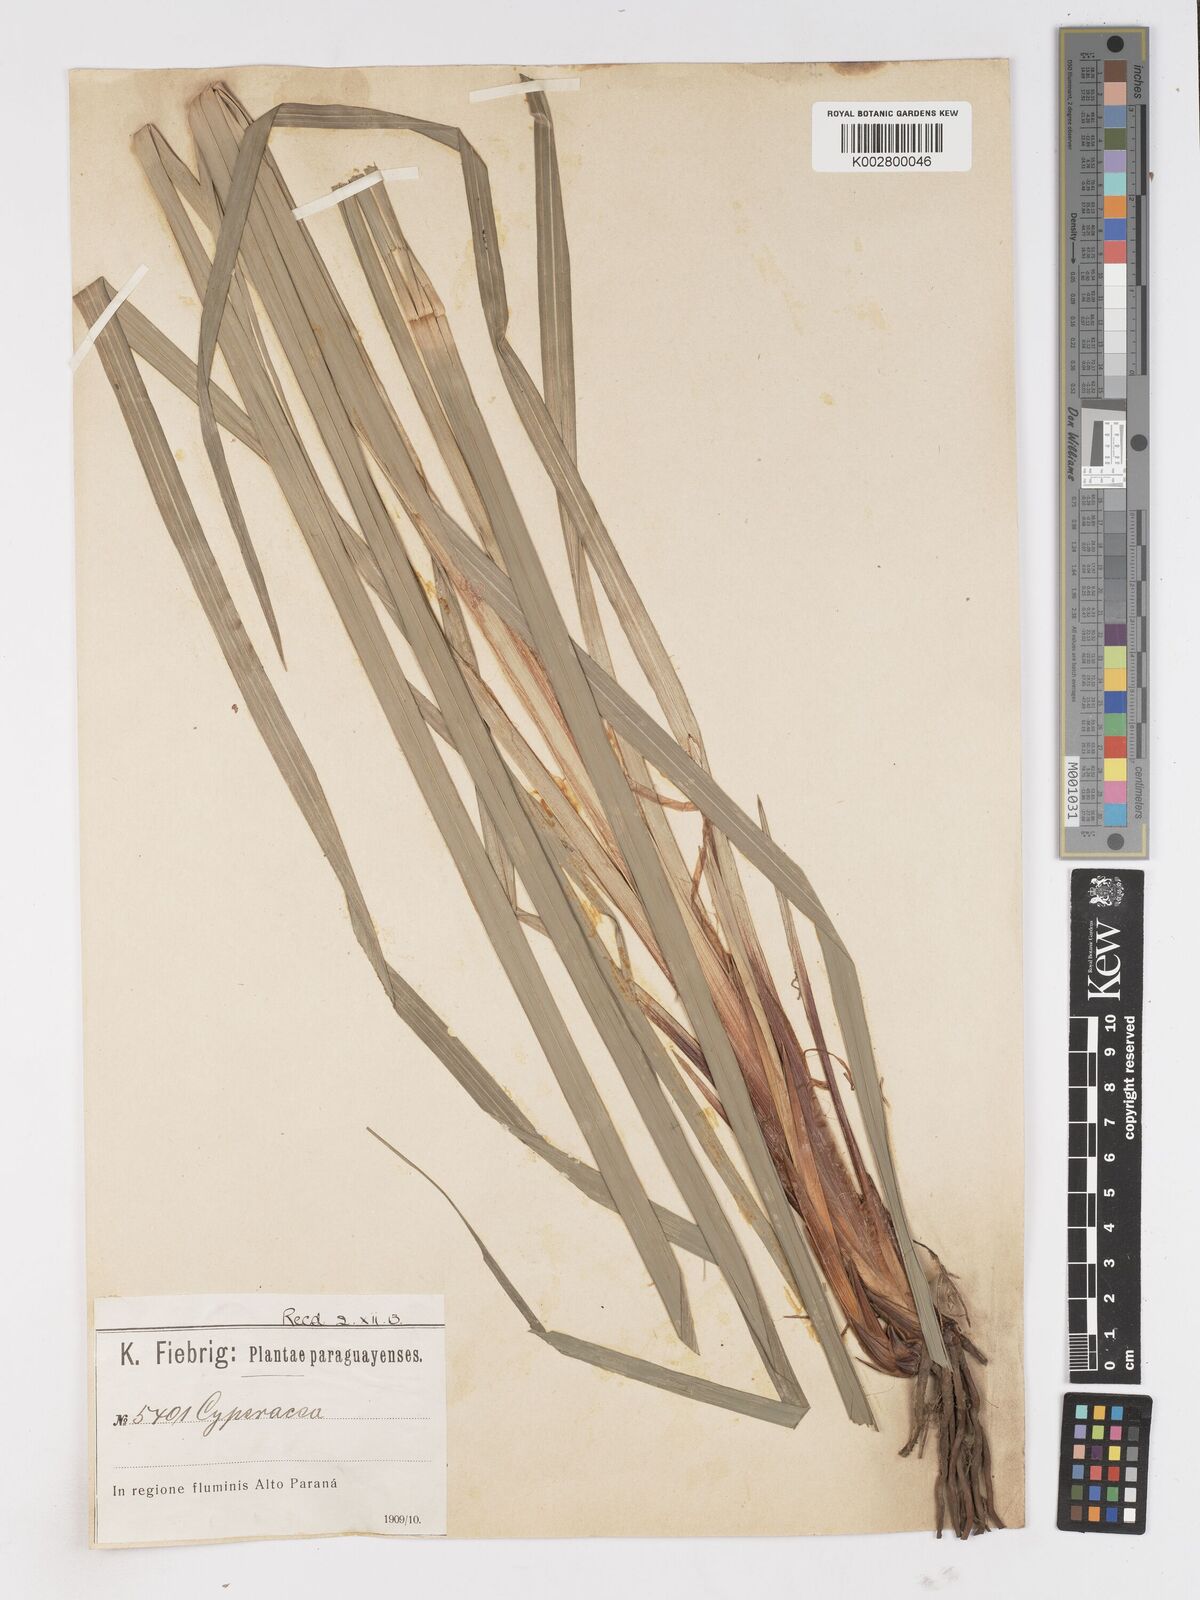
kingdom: Plantae
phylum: Tracheophyta
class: Liliopsida
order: Poales
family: Cyperaceae
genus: Carex
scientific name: Carex brasiliensis
